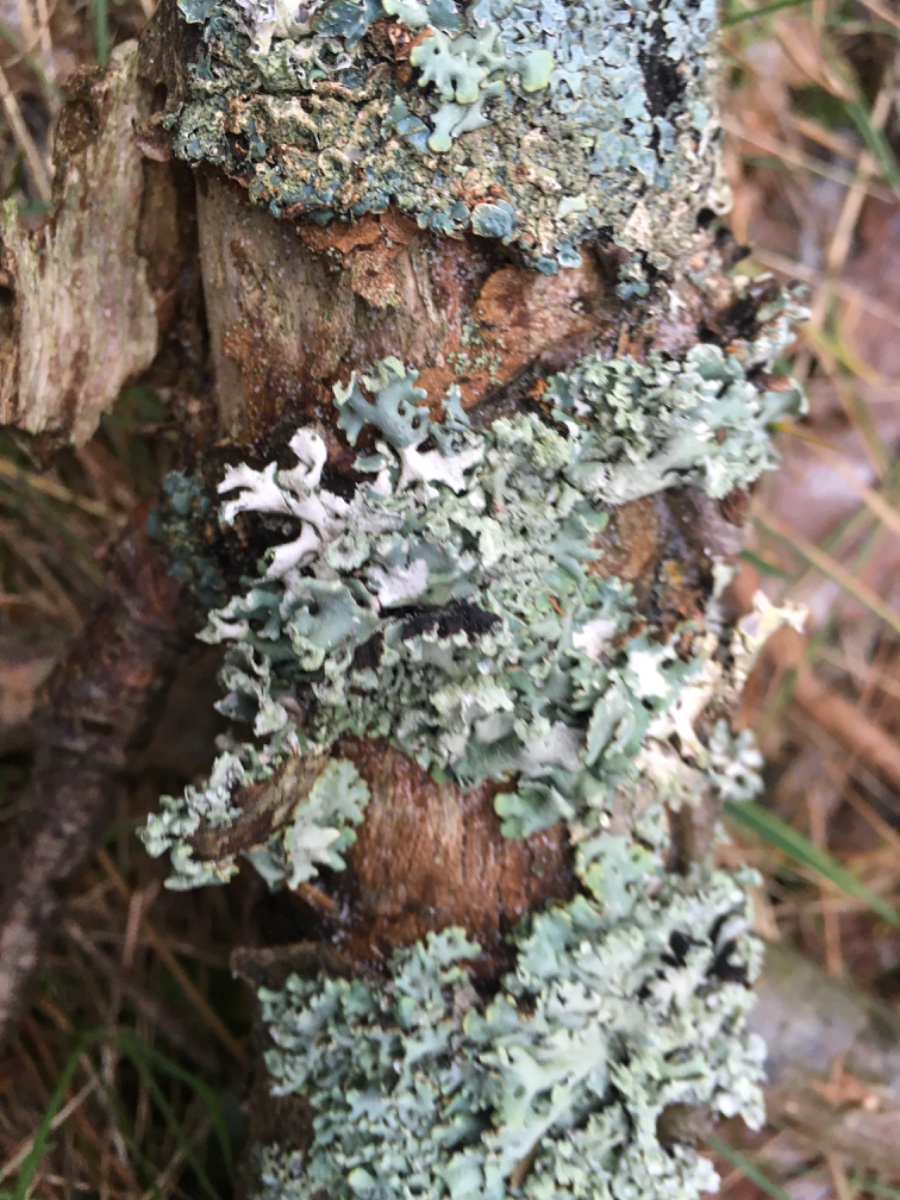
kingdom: Fungi
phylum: Ascomycota
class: Lecanoromycetes
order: Lecanorales
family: Parmeliaceae
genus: Hypogymnia
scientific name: Hypogymnia physodes
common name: almindelig kvistlav
